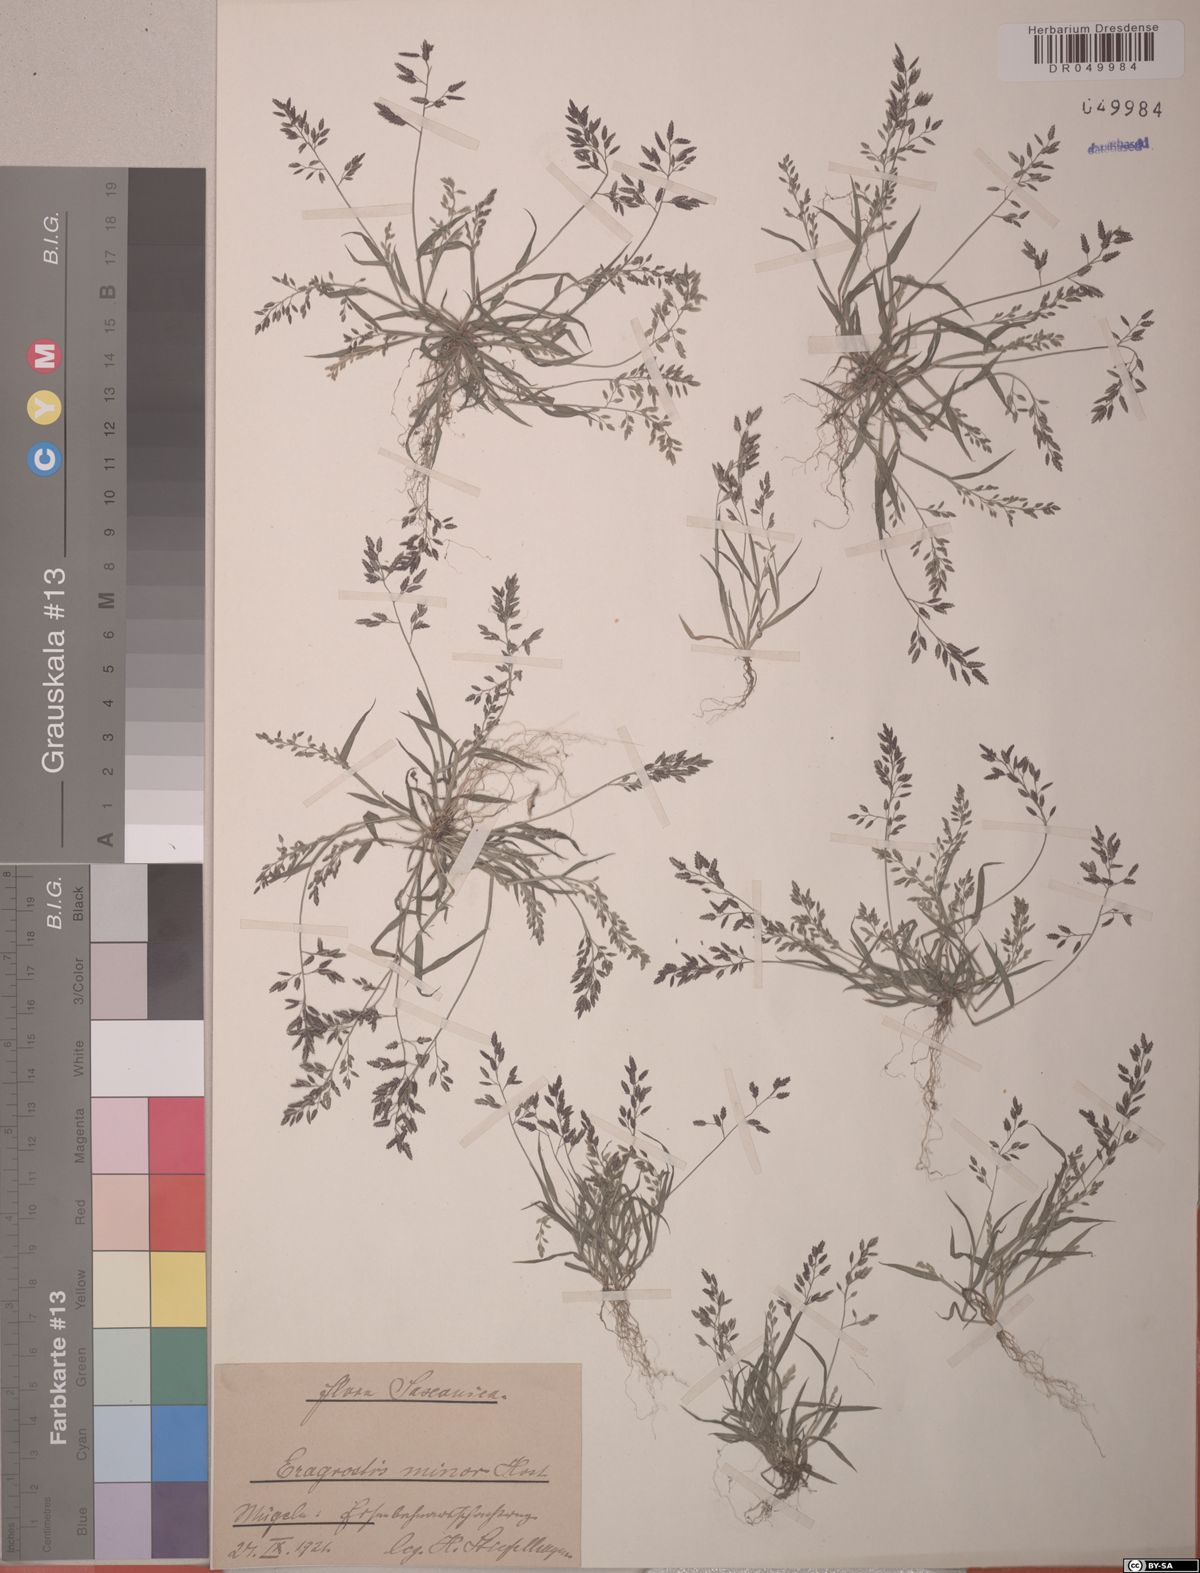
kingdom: Plantae
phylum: Tracheophyta
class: Liliopsida
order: Poales
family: Poaceae
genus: Eragrostis
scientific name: Eragrostis minor
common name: Small love-grass
